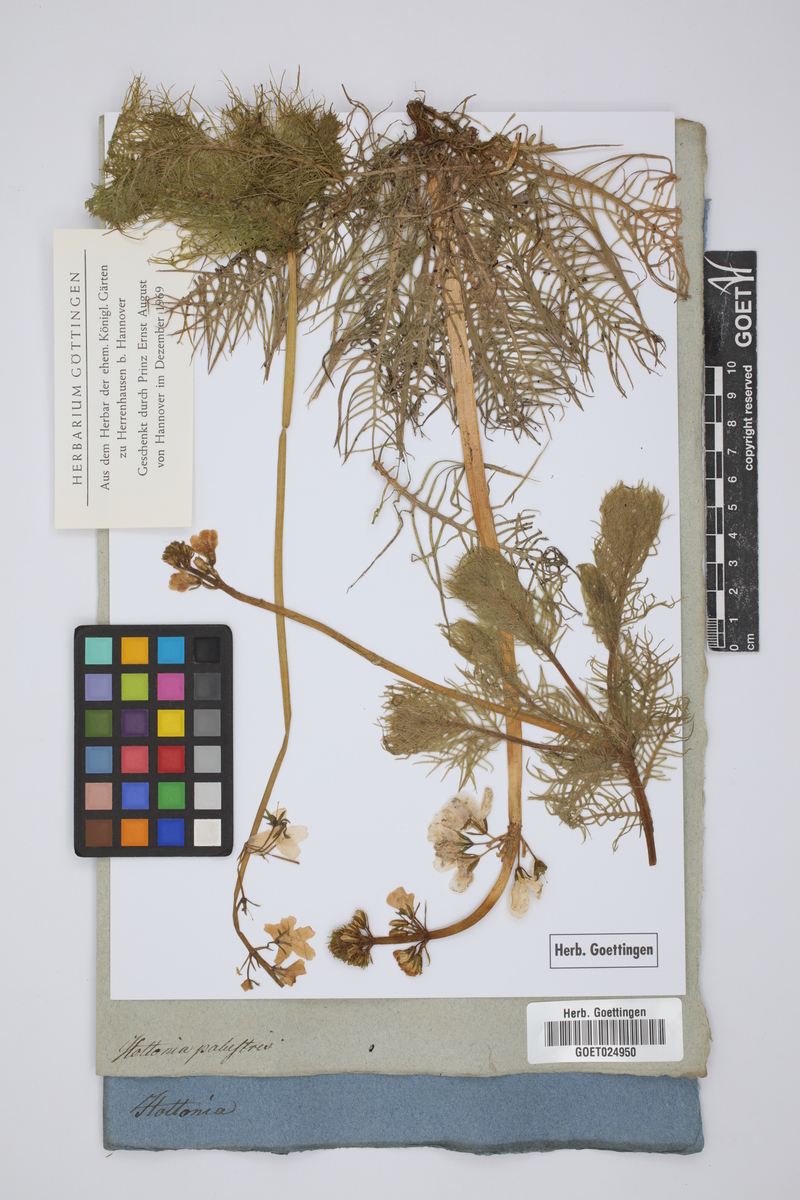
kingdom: Plantae
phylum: Tracheophyta
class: Magnoliopsida
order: Ericales
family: Primulaceae
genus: Hottonia
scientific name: Hottonia palustris
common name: Water-violet
